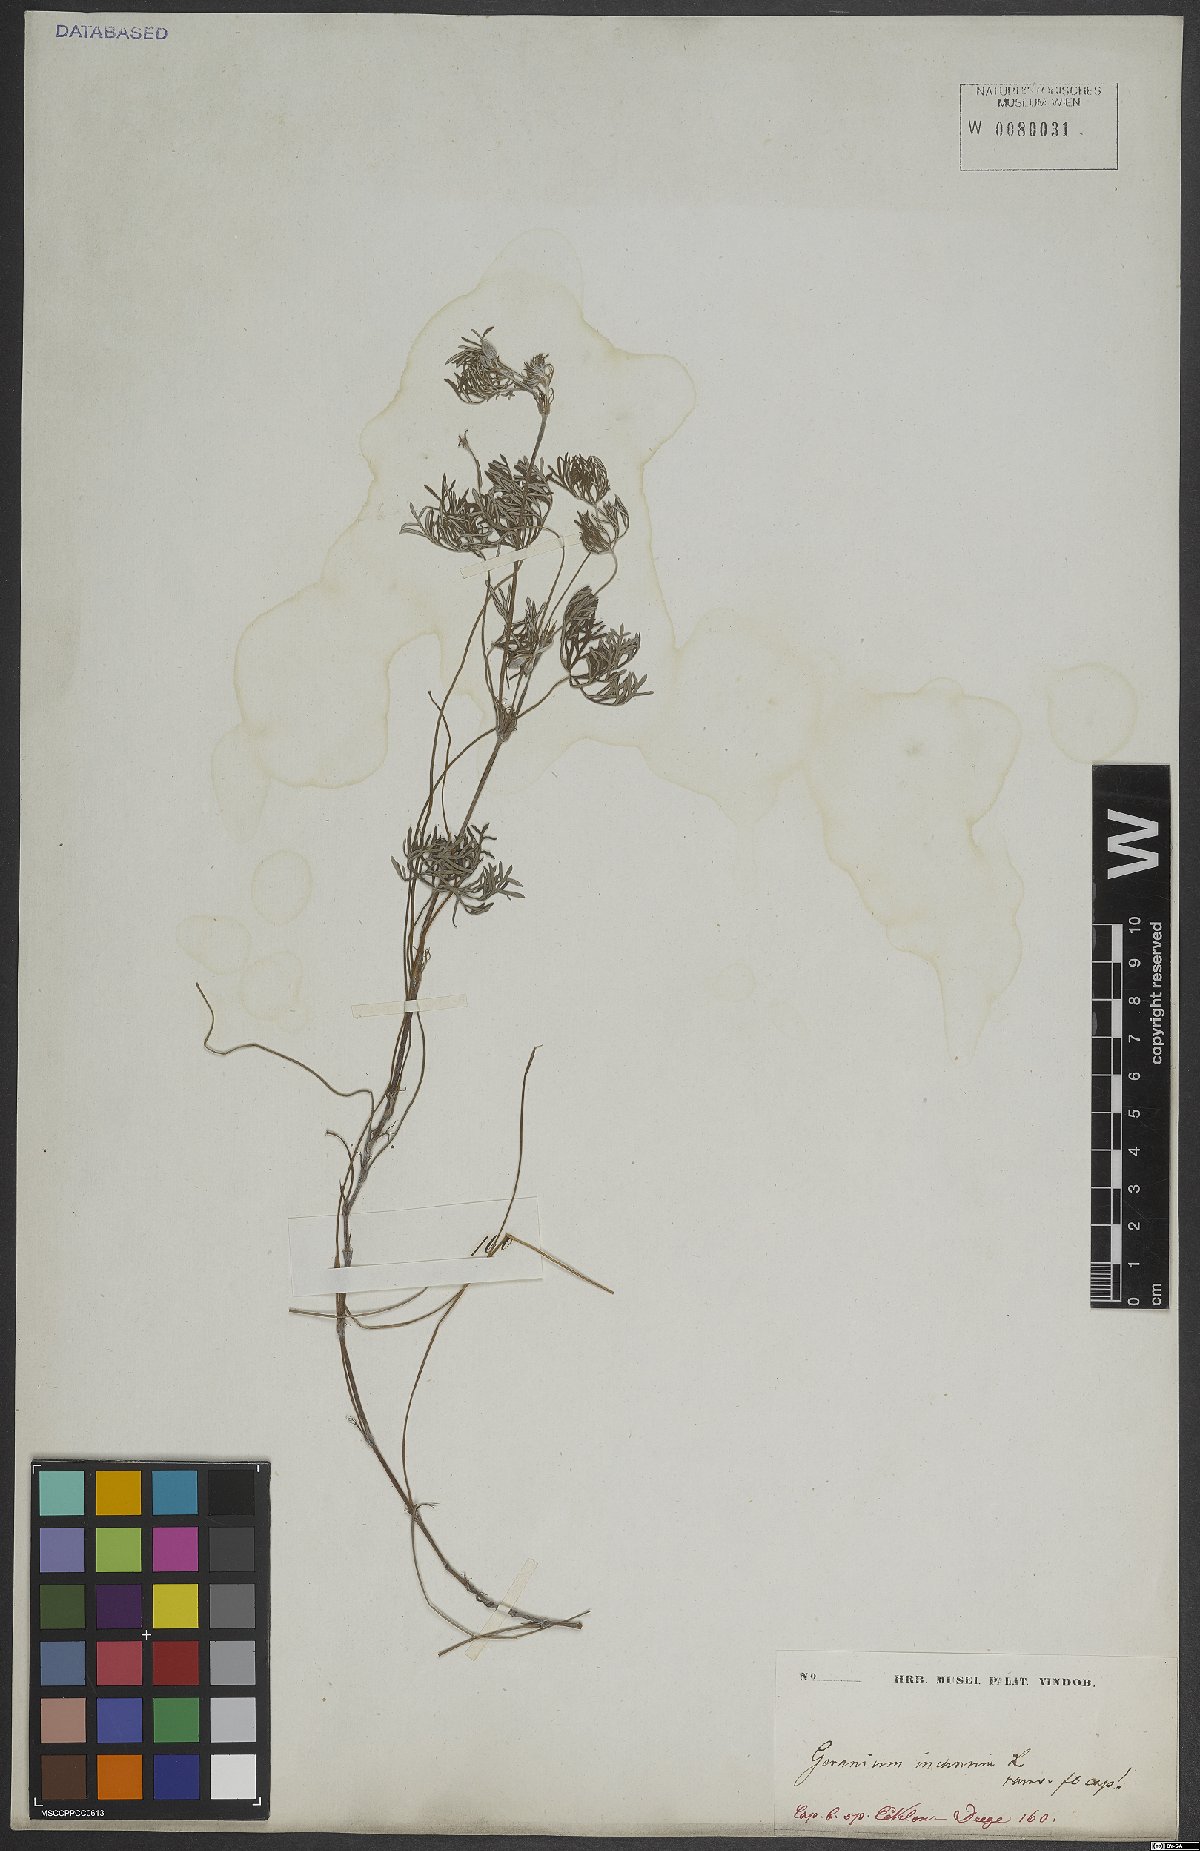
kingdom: Plantae
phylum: Tracheophyta
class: Magnoliopsida
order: Geraniales
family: Geraniaceae
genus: Geranium
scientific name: Geranium incanum
